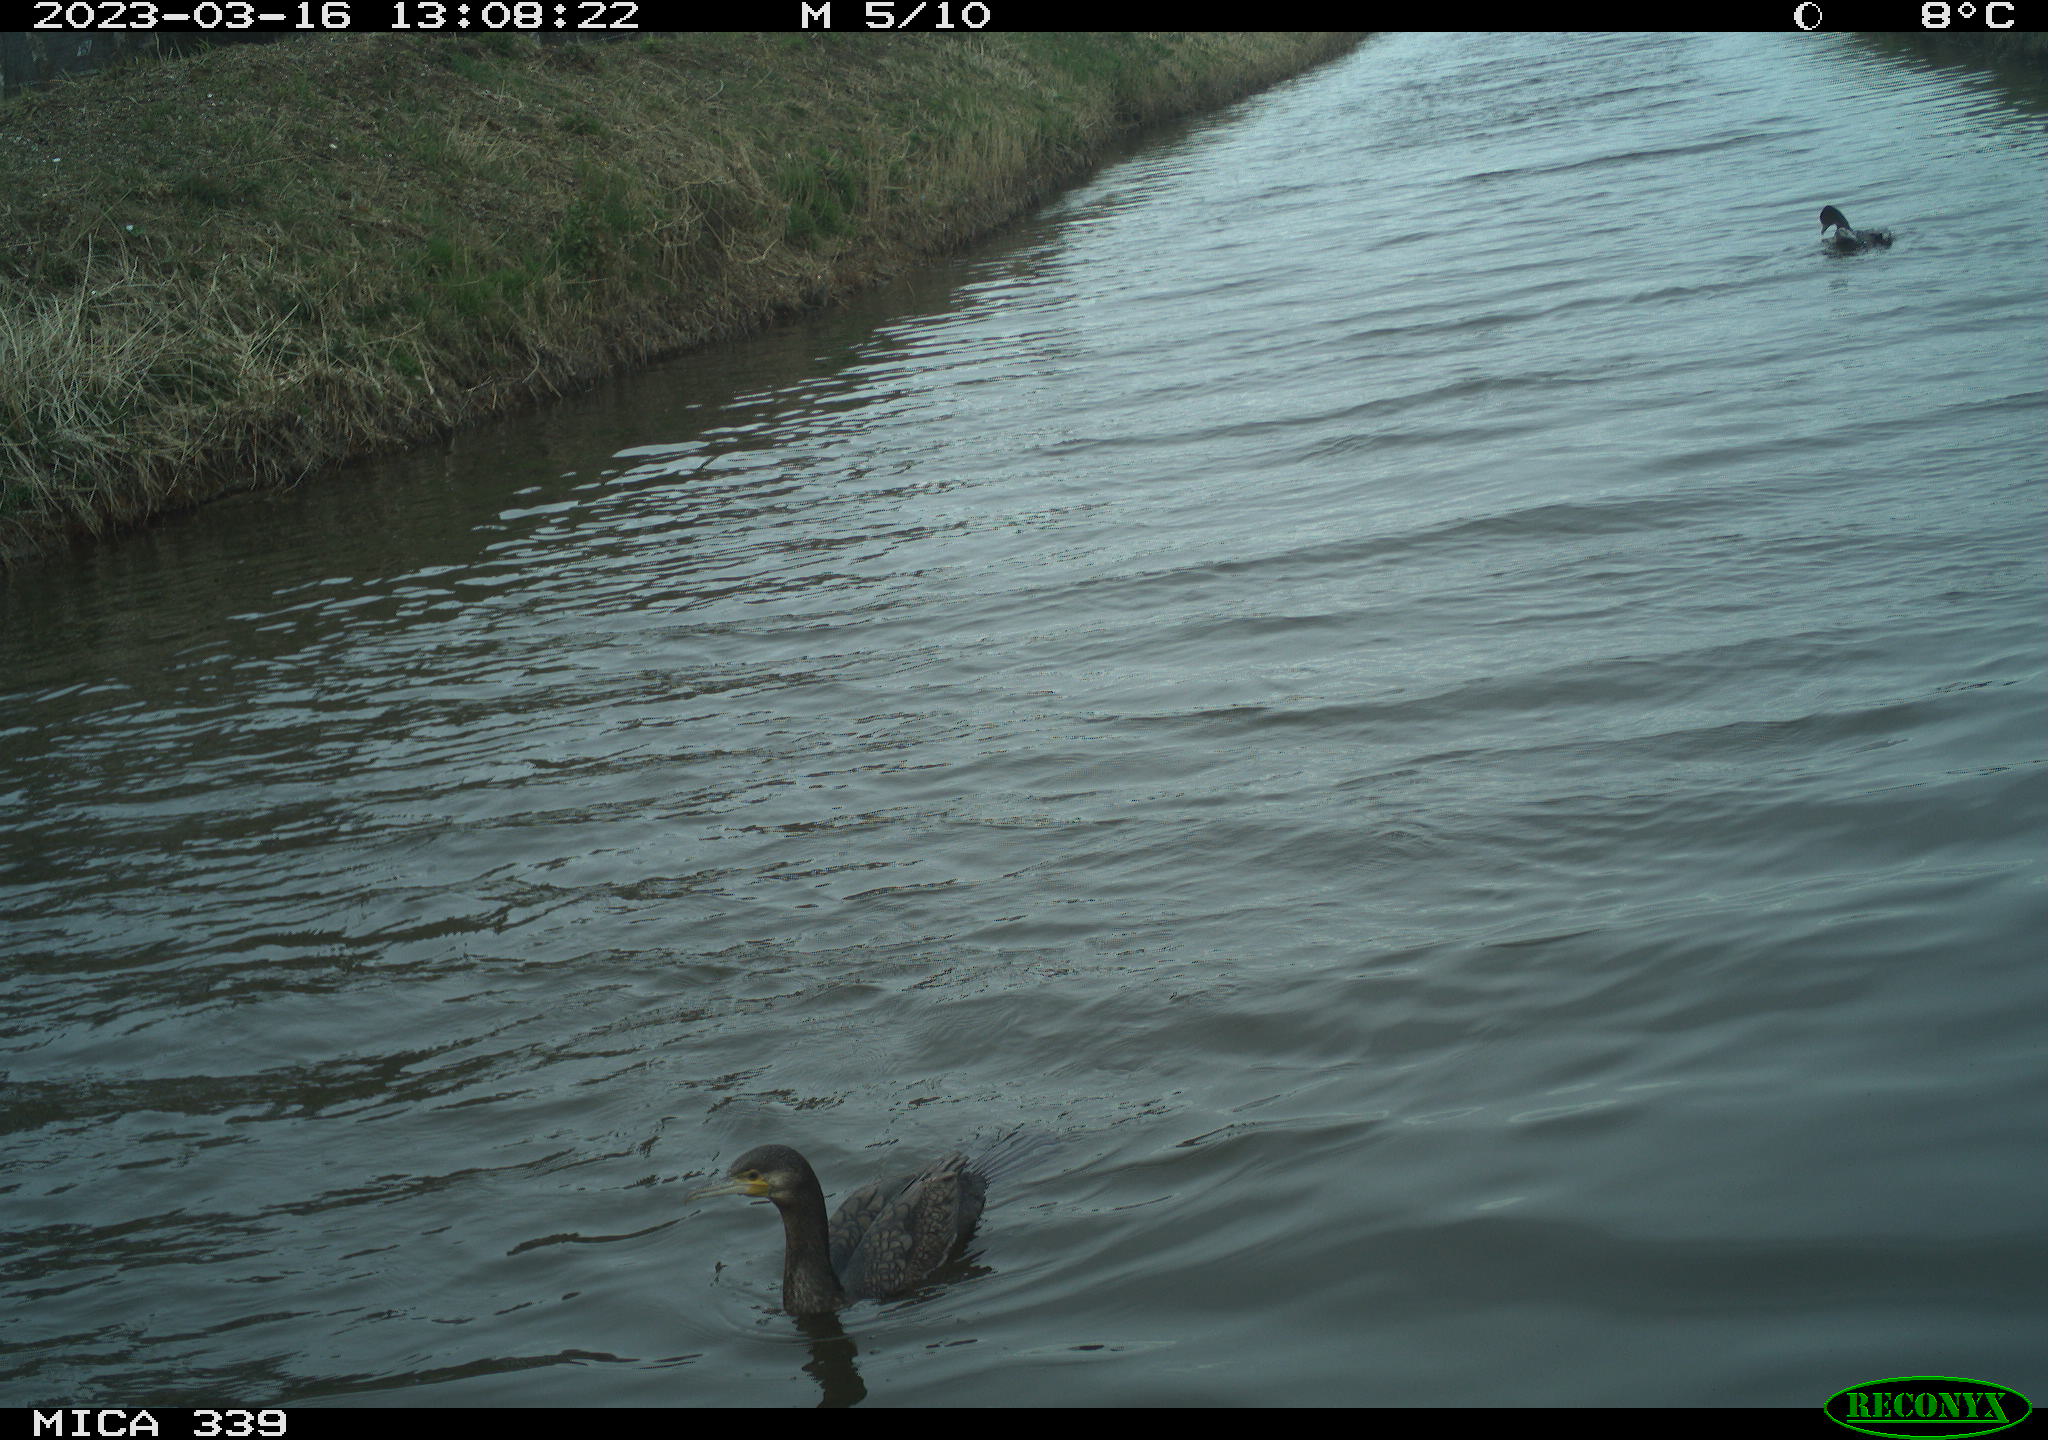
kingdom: Animalia
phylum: Chordata
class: Aves
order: Suliformes
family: Phalacrocoracidae
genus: Phalacrocorax
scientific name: Phalacrocorax carbo
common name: Great cormorant
